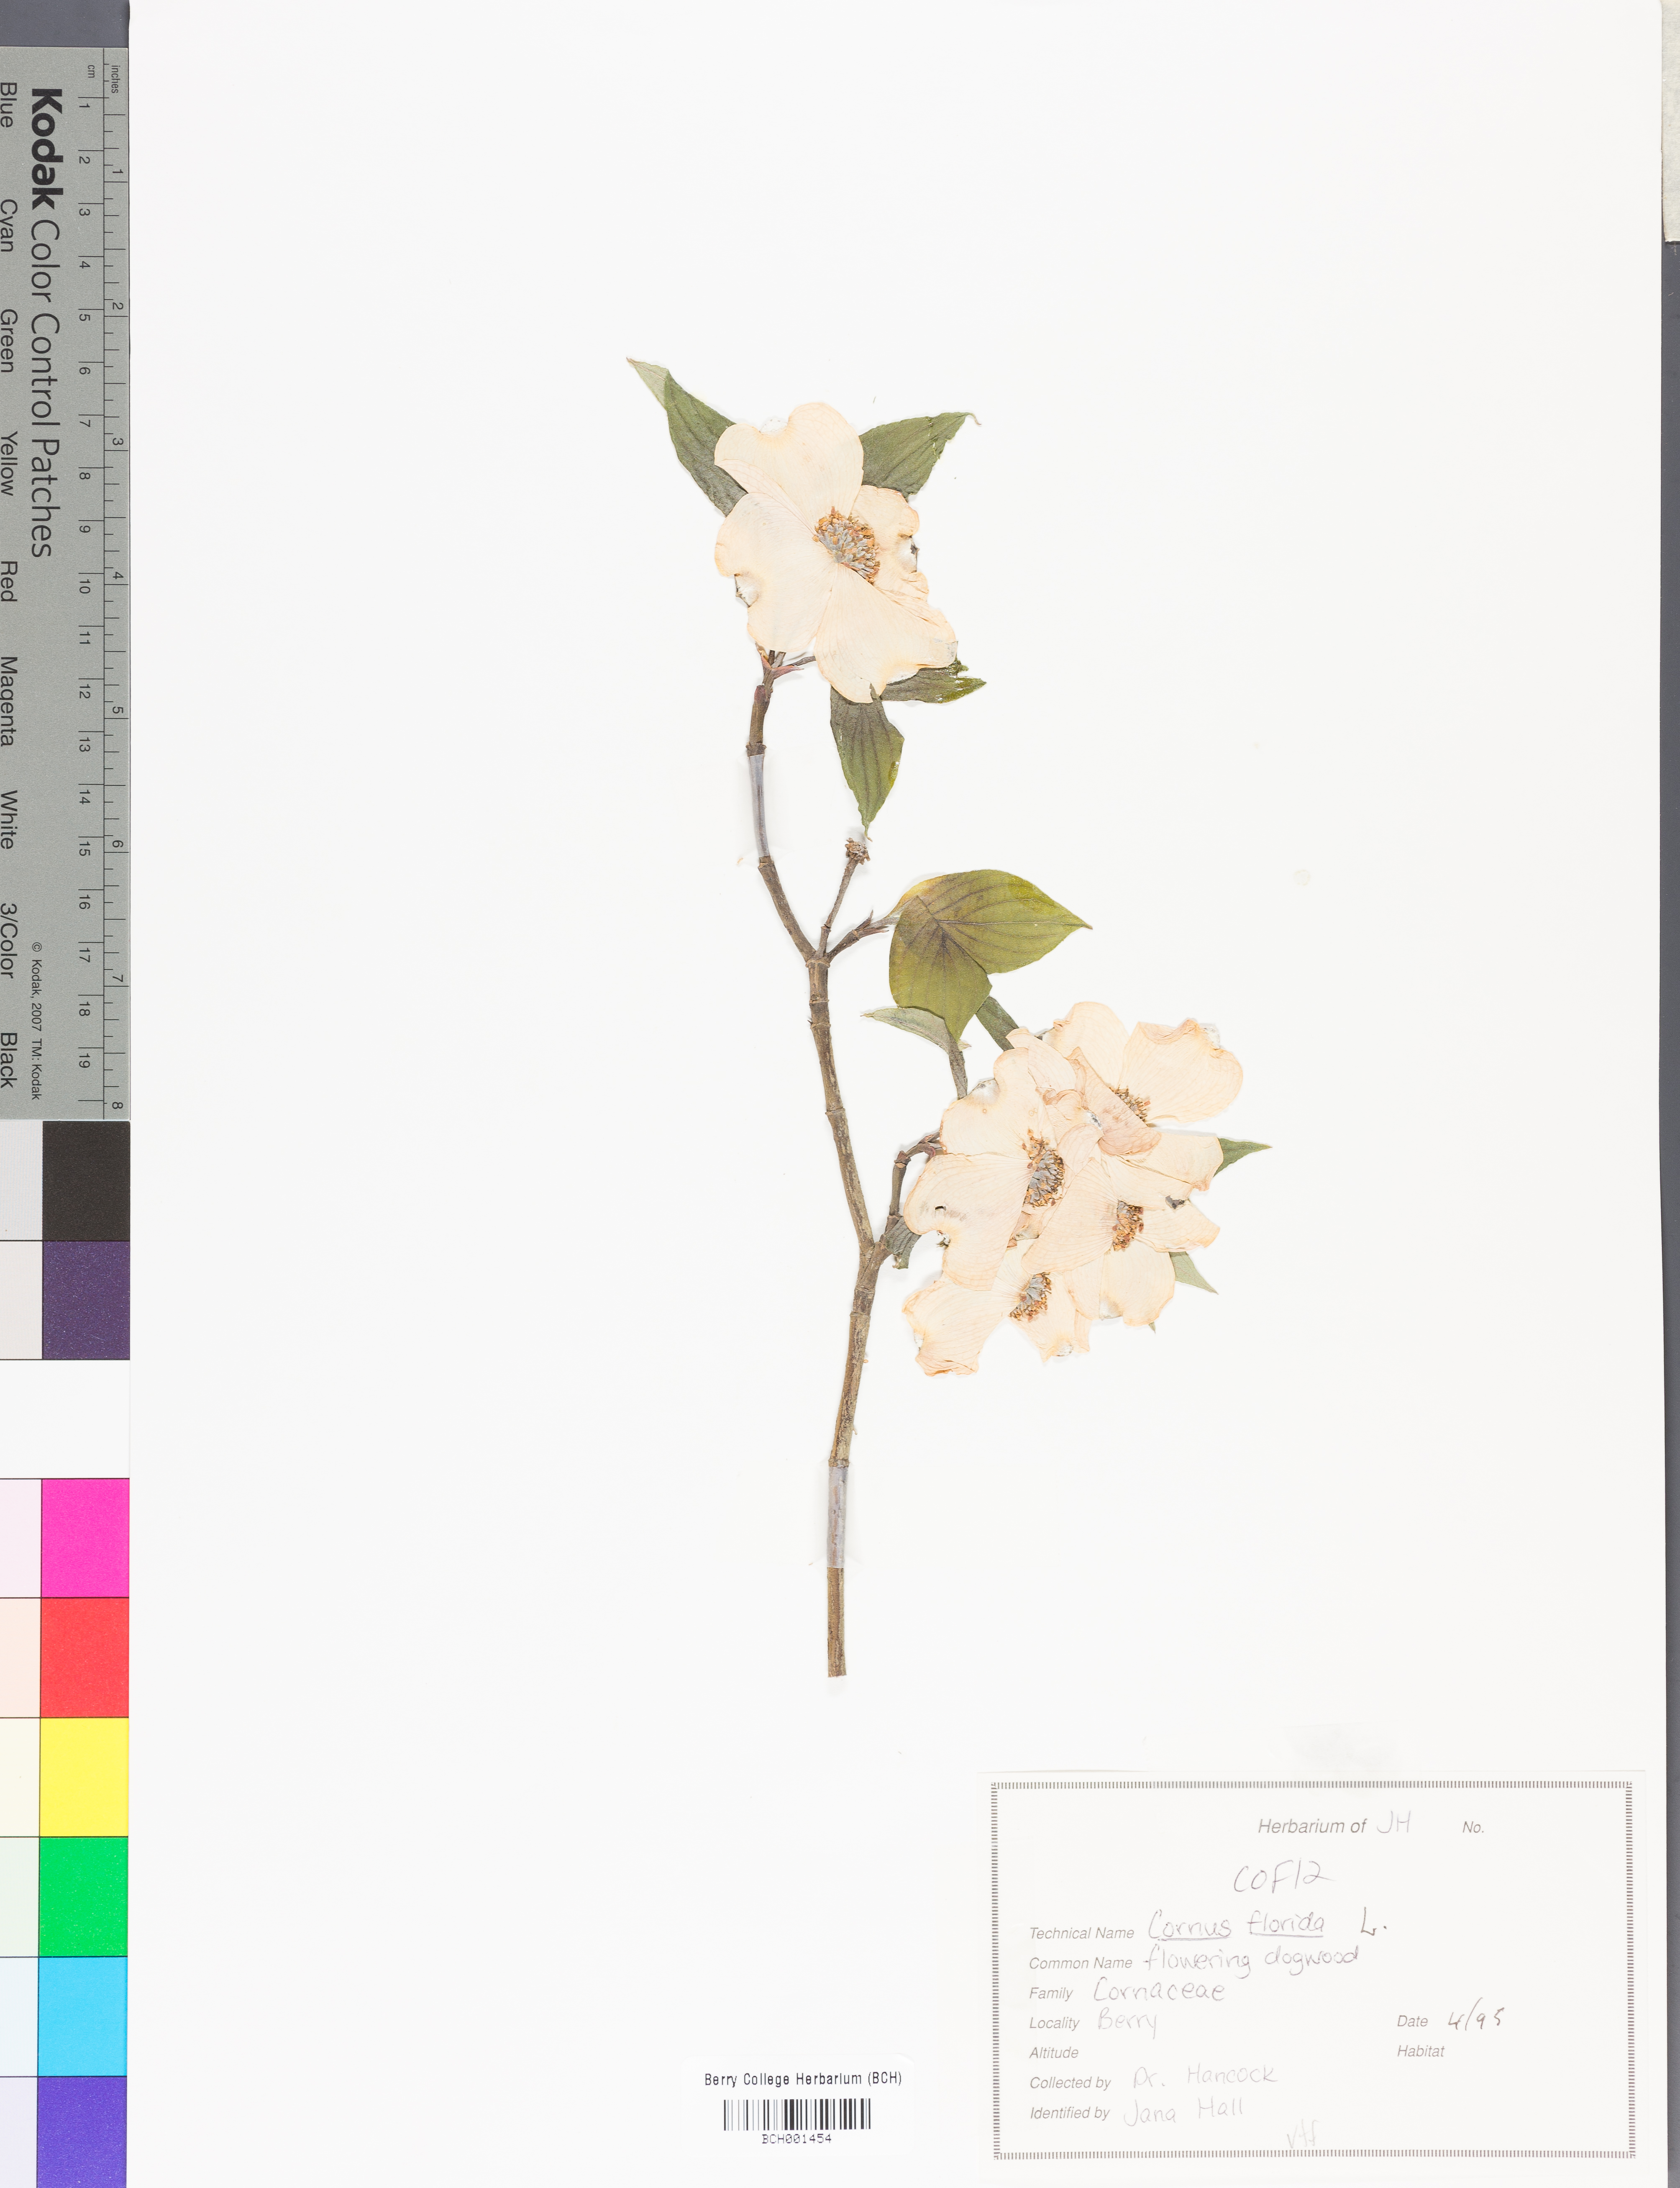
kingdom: Plantae
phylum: Tracheophyta
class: Magnoliopsida
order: Cornales
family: Cornaceae
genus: Cornus
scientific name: Cornus florida
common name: Flowering dogwood
